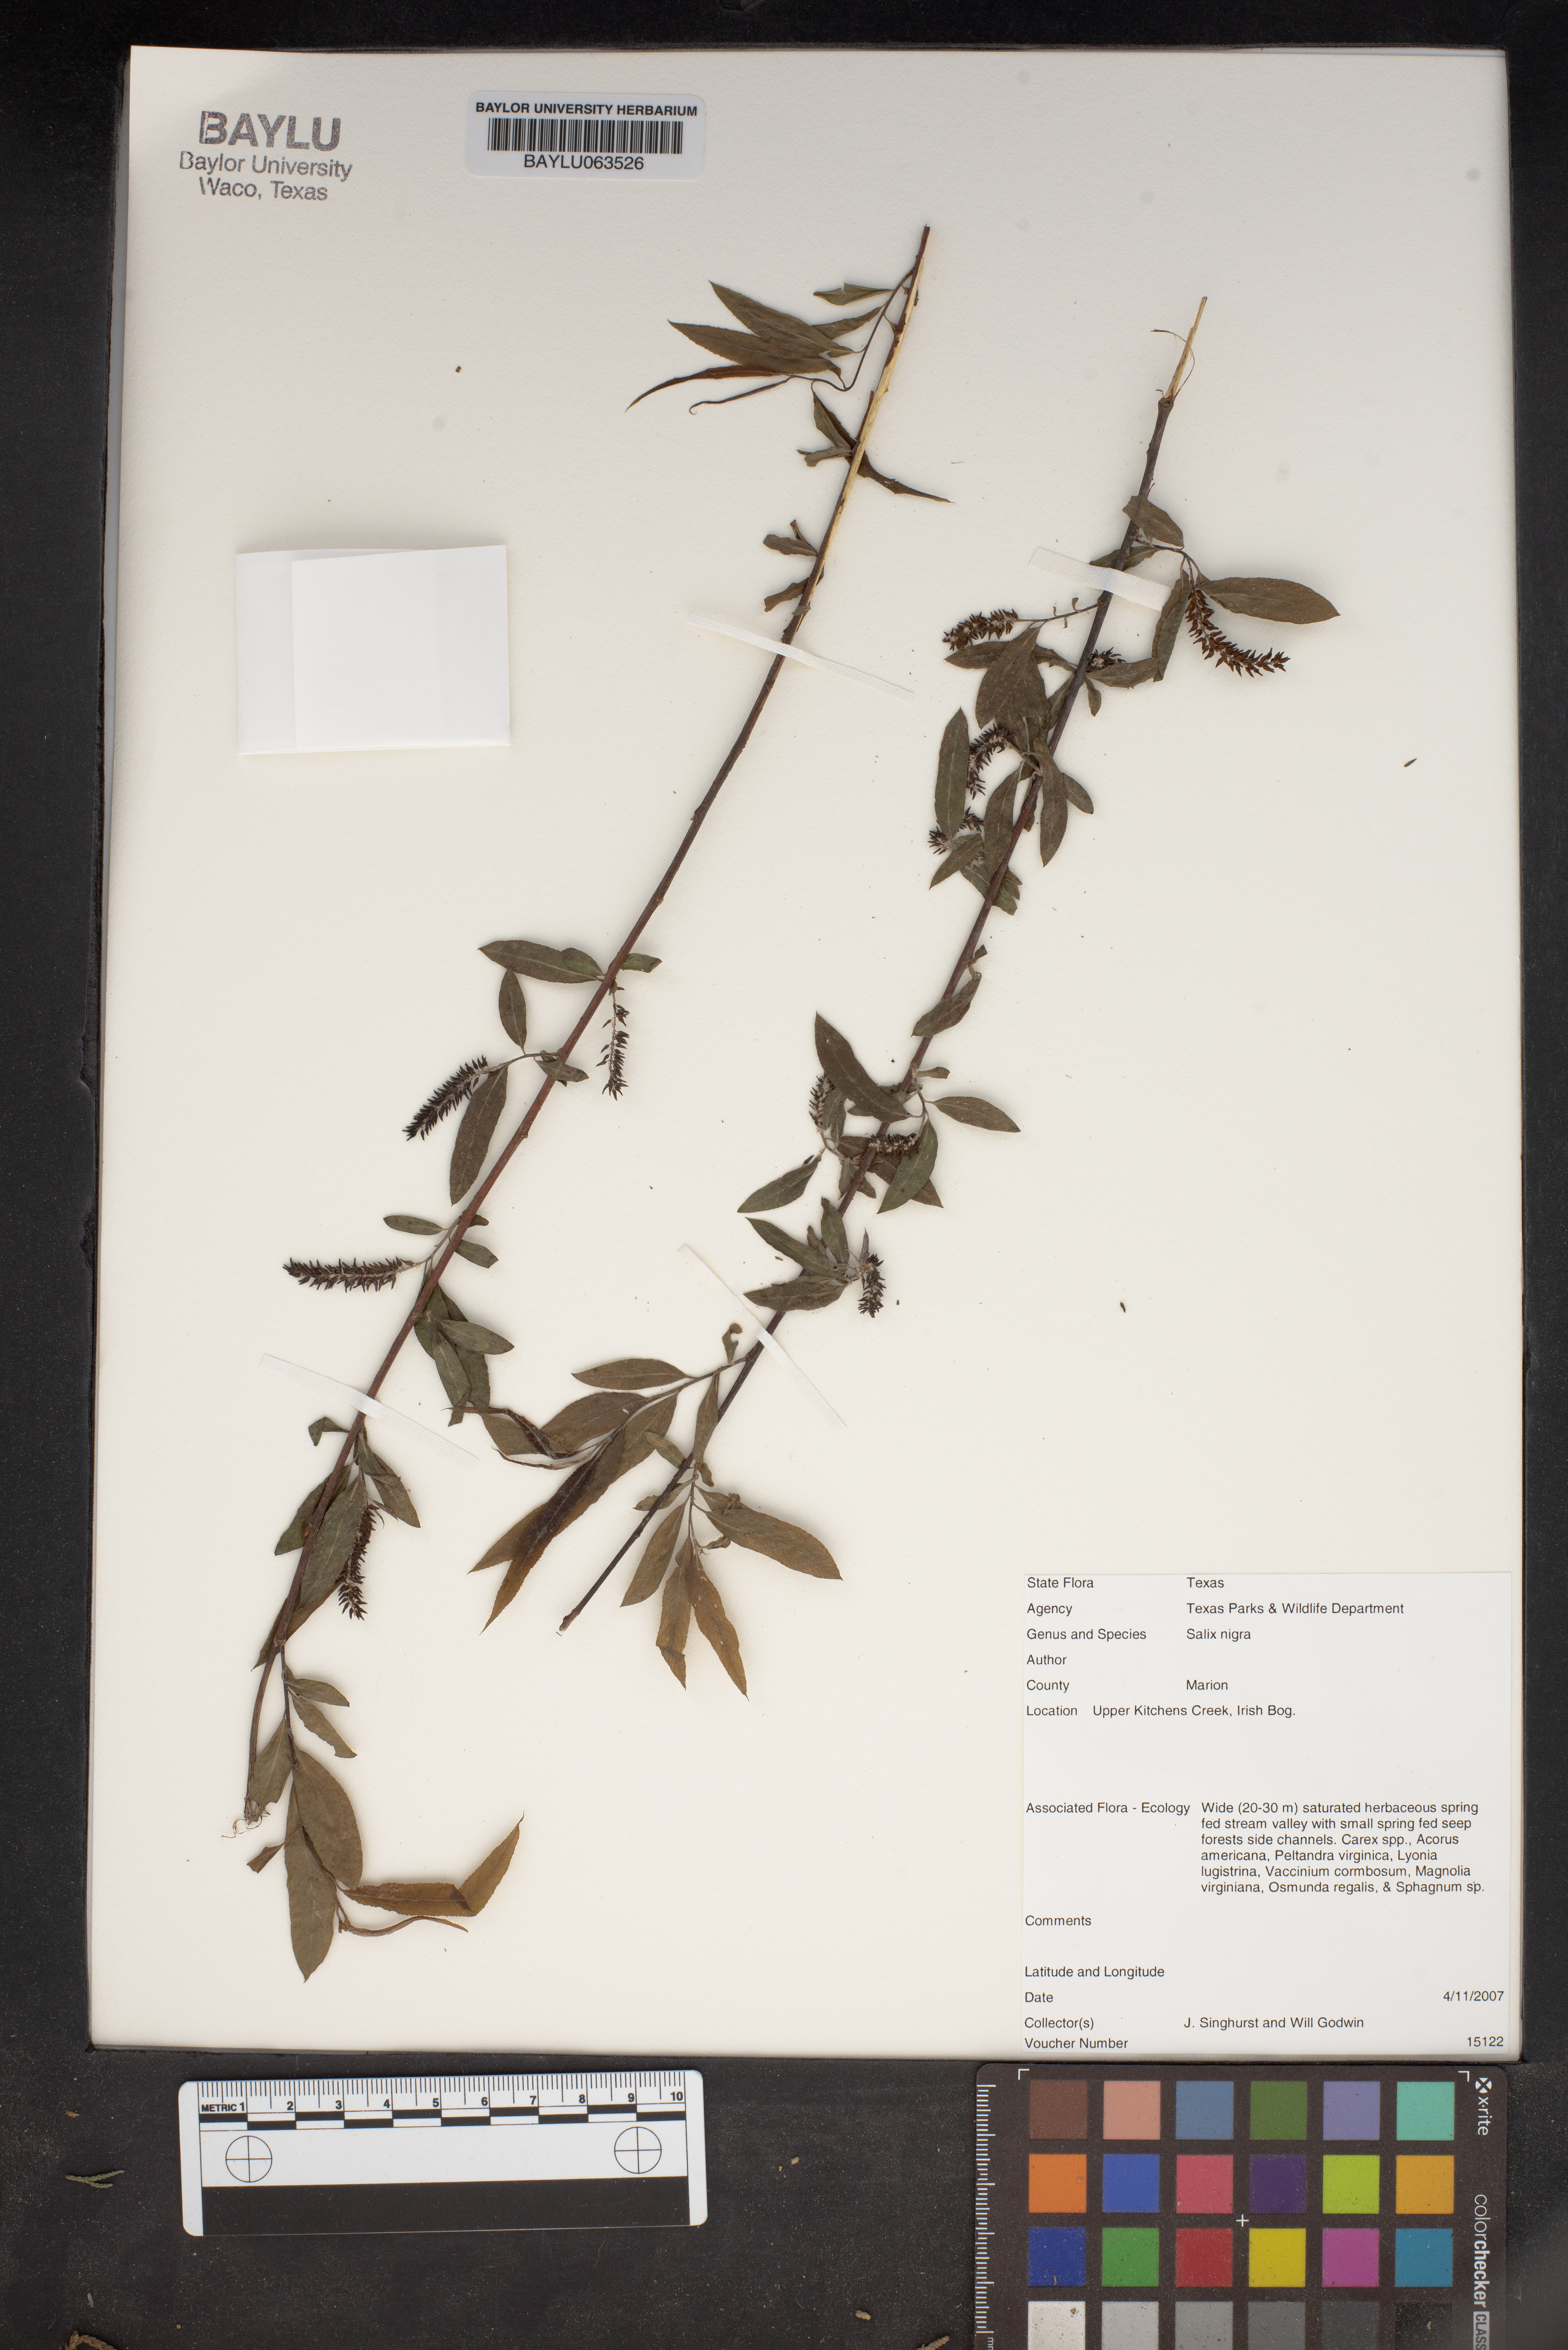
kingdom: Plantae
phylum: Tracheophyta
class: Magnoliopsida
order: Malpighiales
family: Salicaceae
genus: Salix
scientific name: Salix nigra
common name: Black willow
